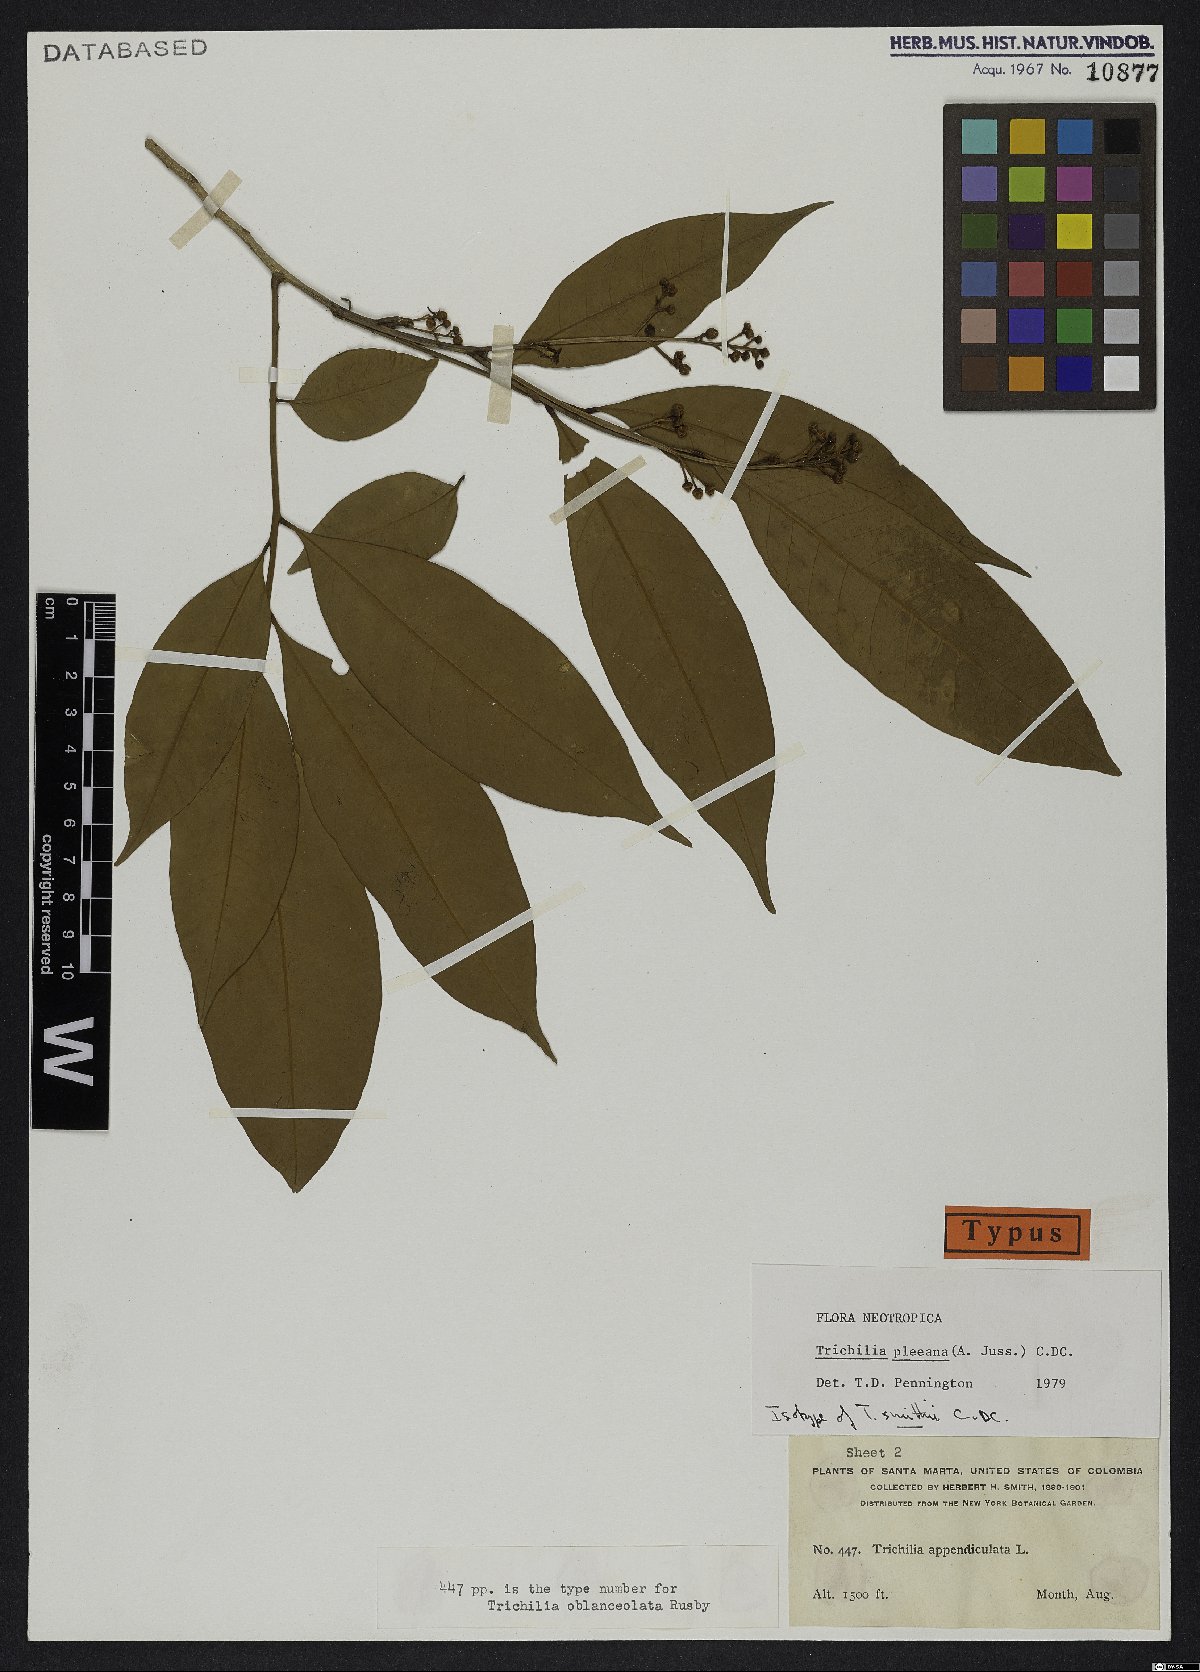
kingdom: Plantae
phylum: Tracheophyta
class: Magnoliopsida
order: Sapindales
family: Meliaceae
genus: Trichilia
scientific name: Trichilia pleeana
